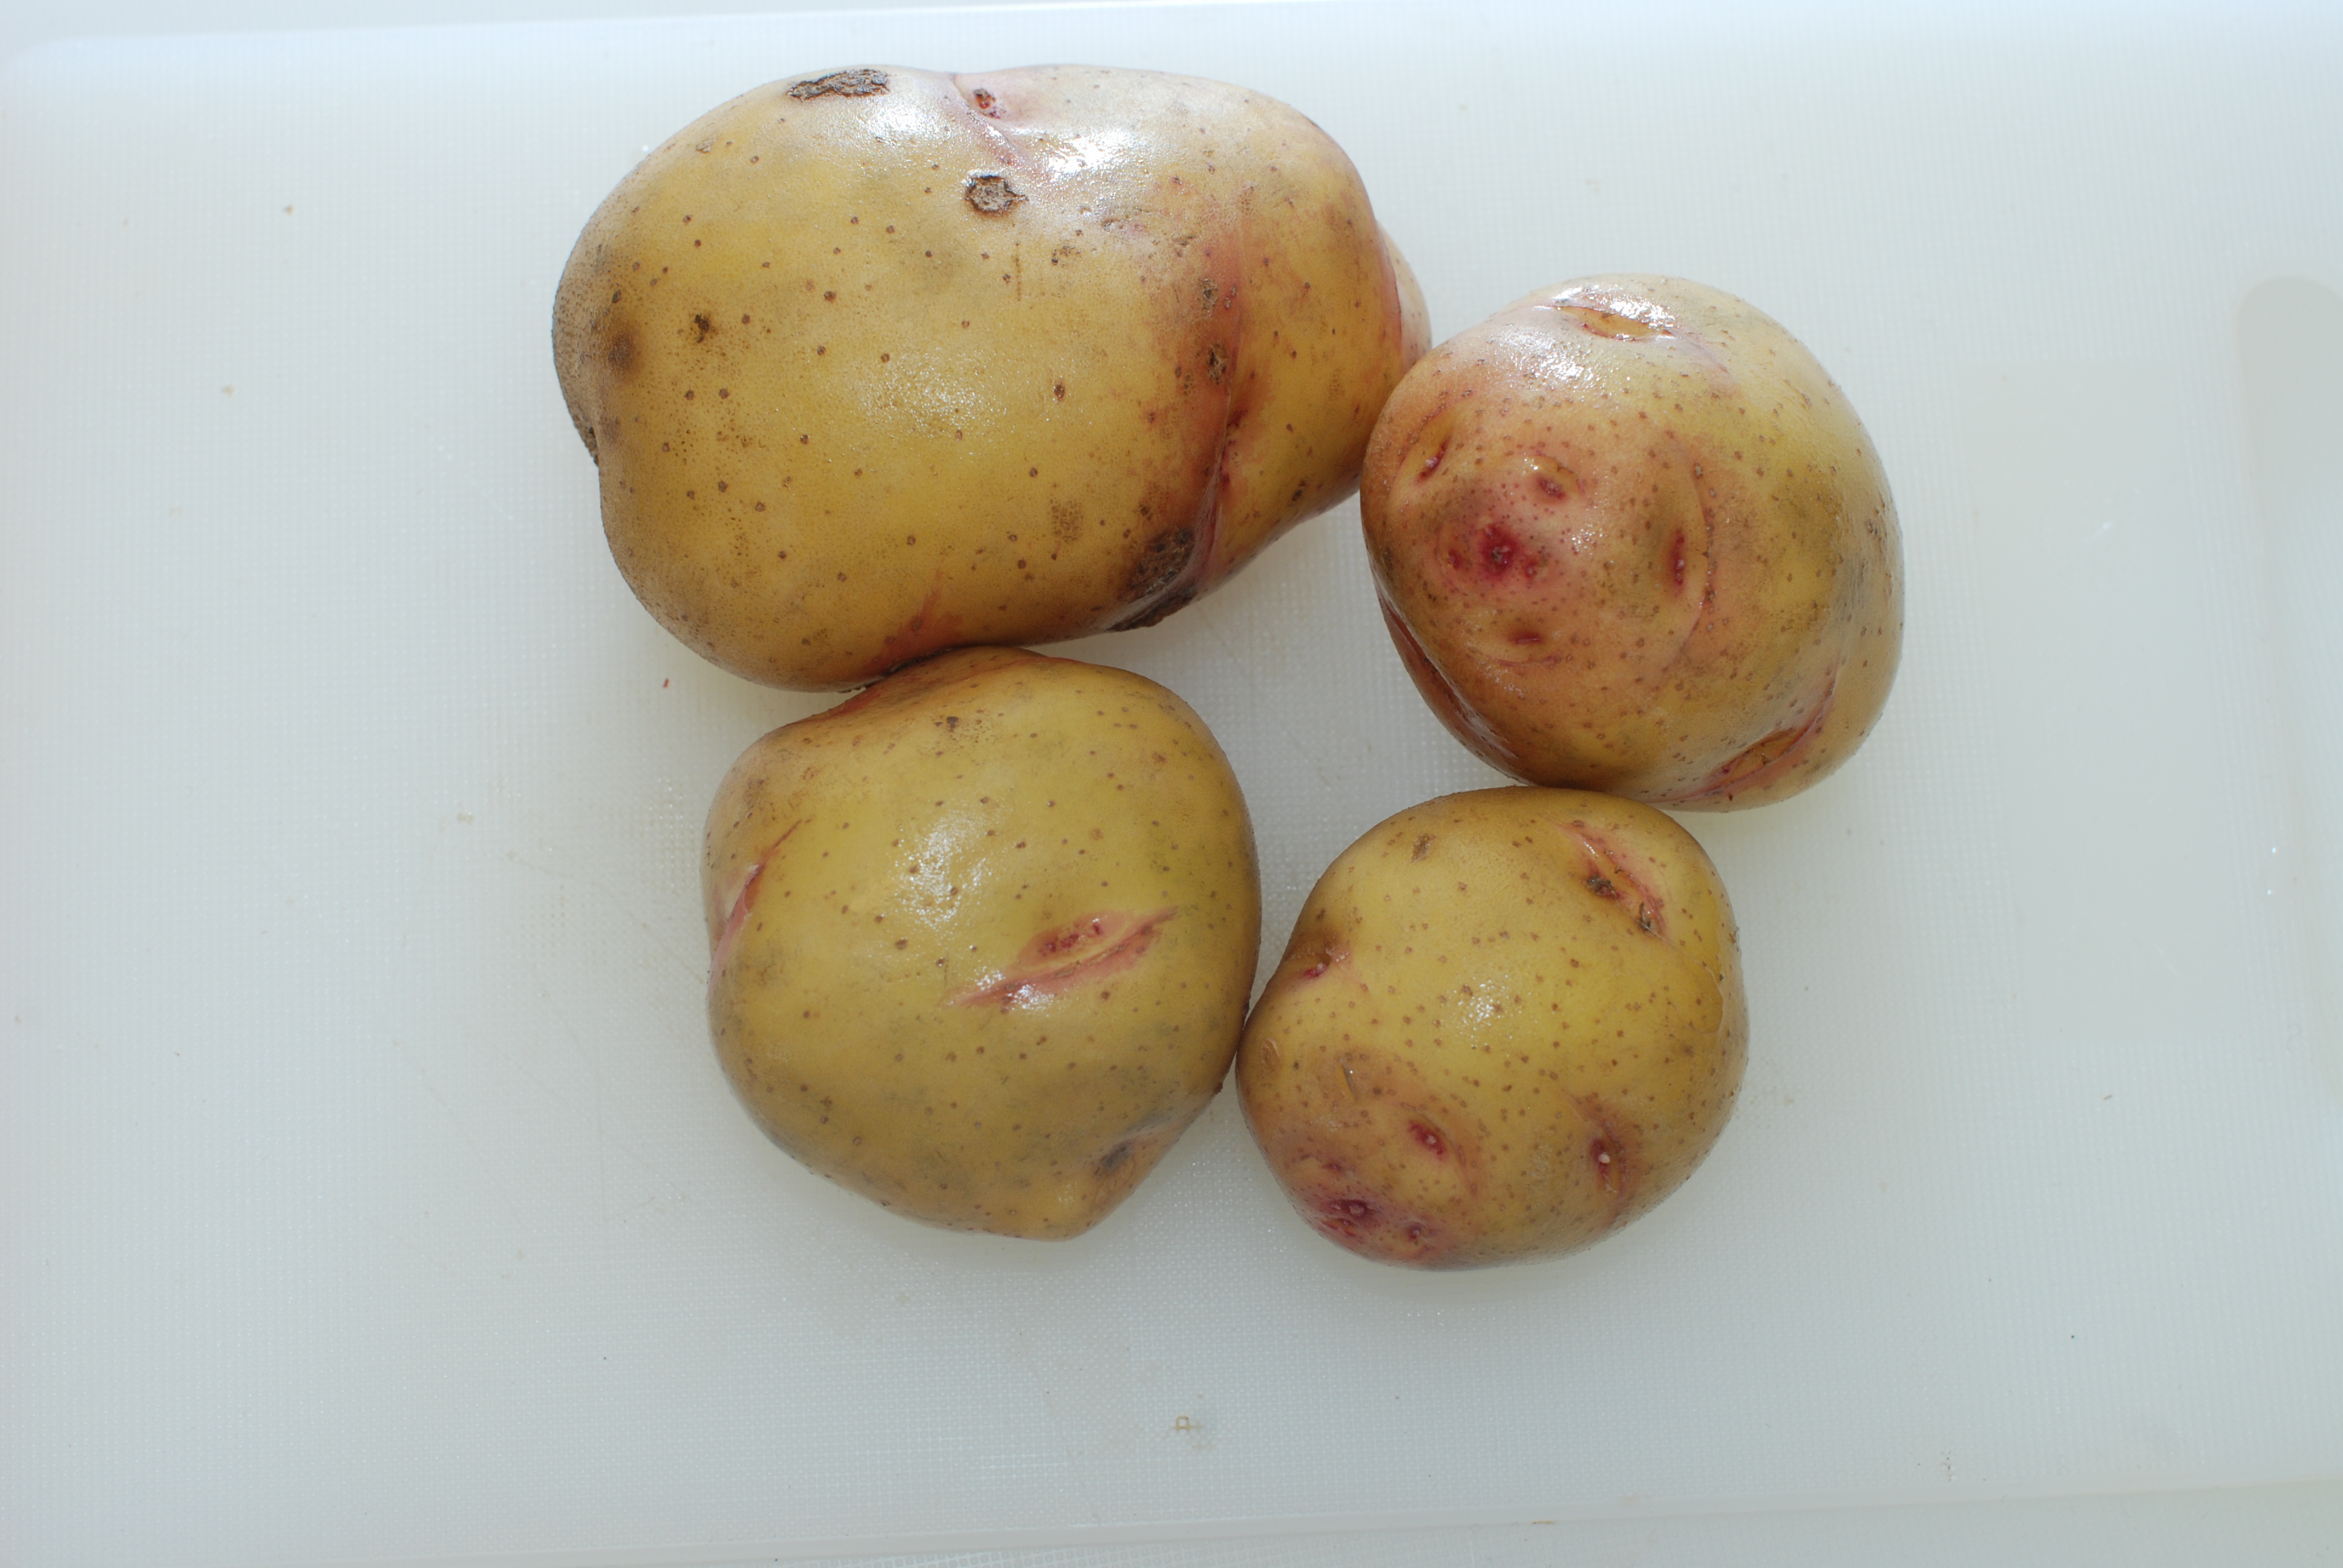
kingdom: Plantae
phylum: Tracheophyta
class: Magnoliopsida
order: Solanales
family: Solanaceae
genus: Solanum
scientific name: Solanum tuberosum
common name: Potato
